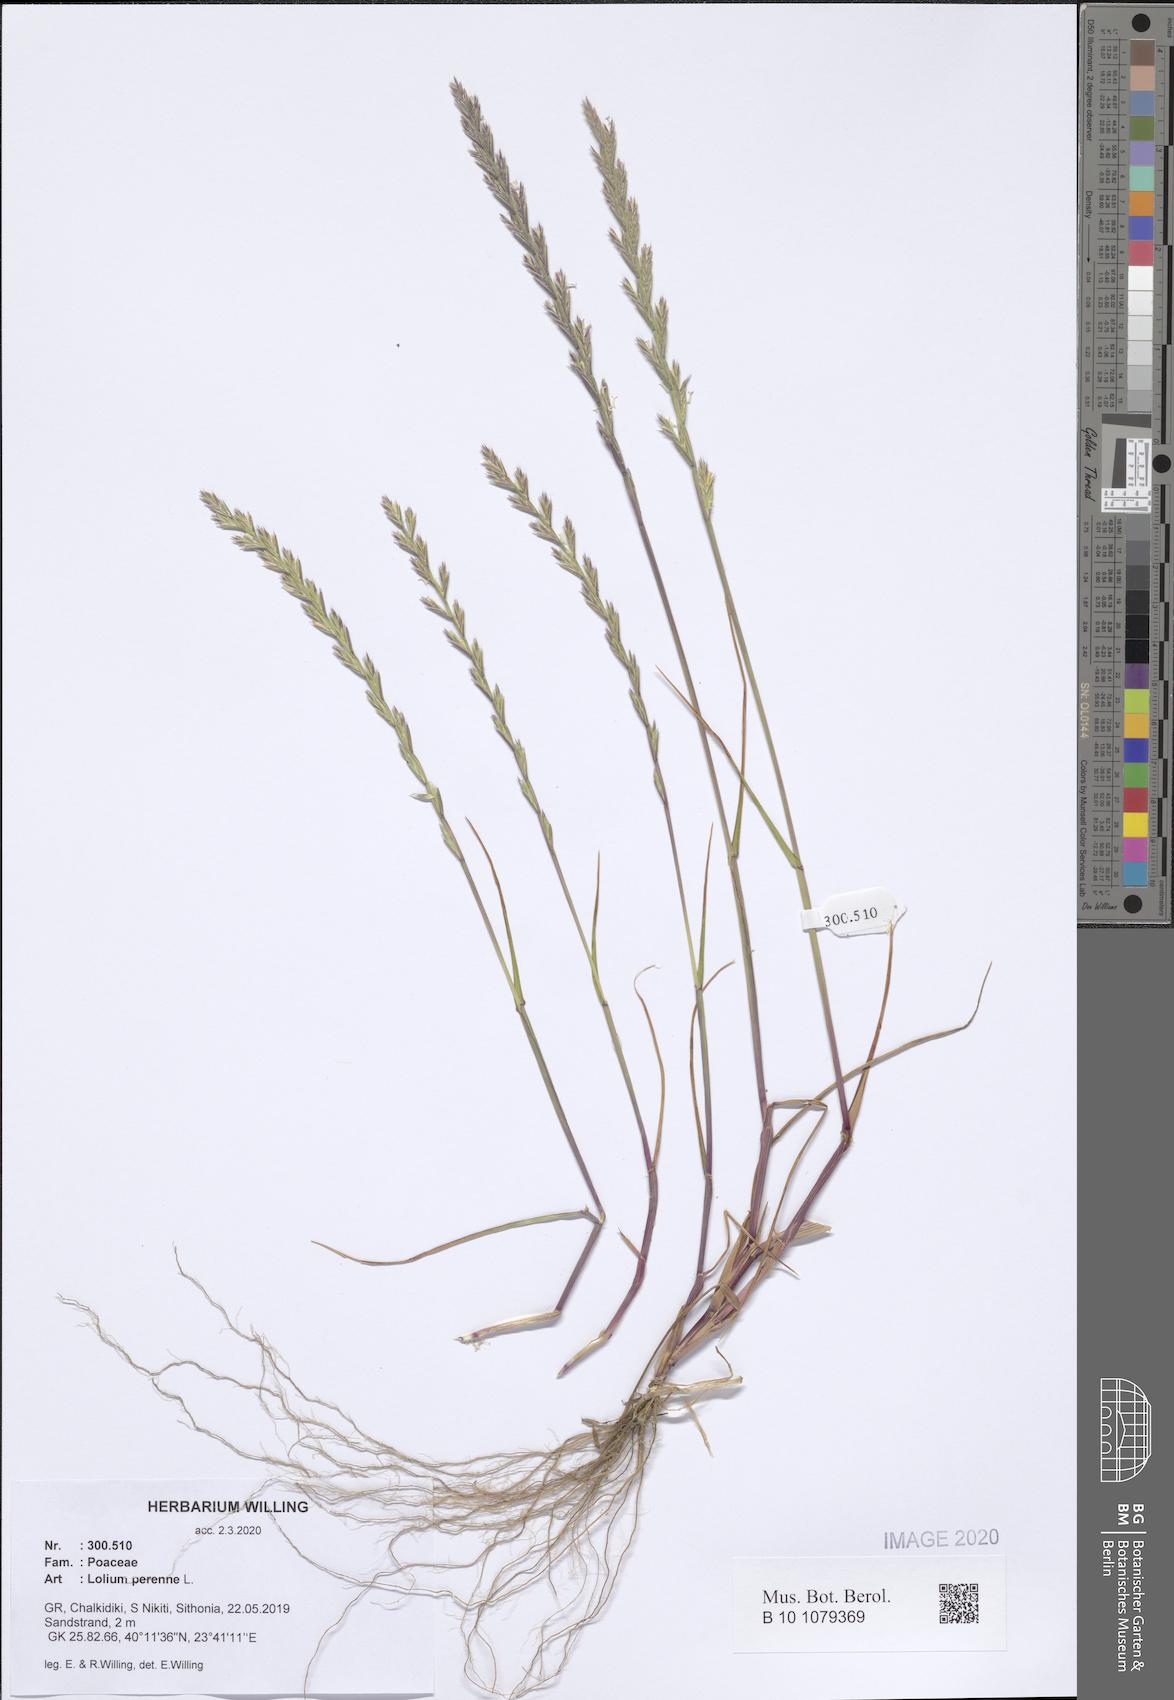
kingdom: Plantae
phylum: Tracheophyta
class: Liliopsida
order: Poales
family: Poaceae
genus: Lolium
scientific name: Lolium perenne
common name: Perennial ryegrass
